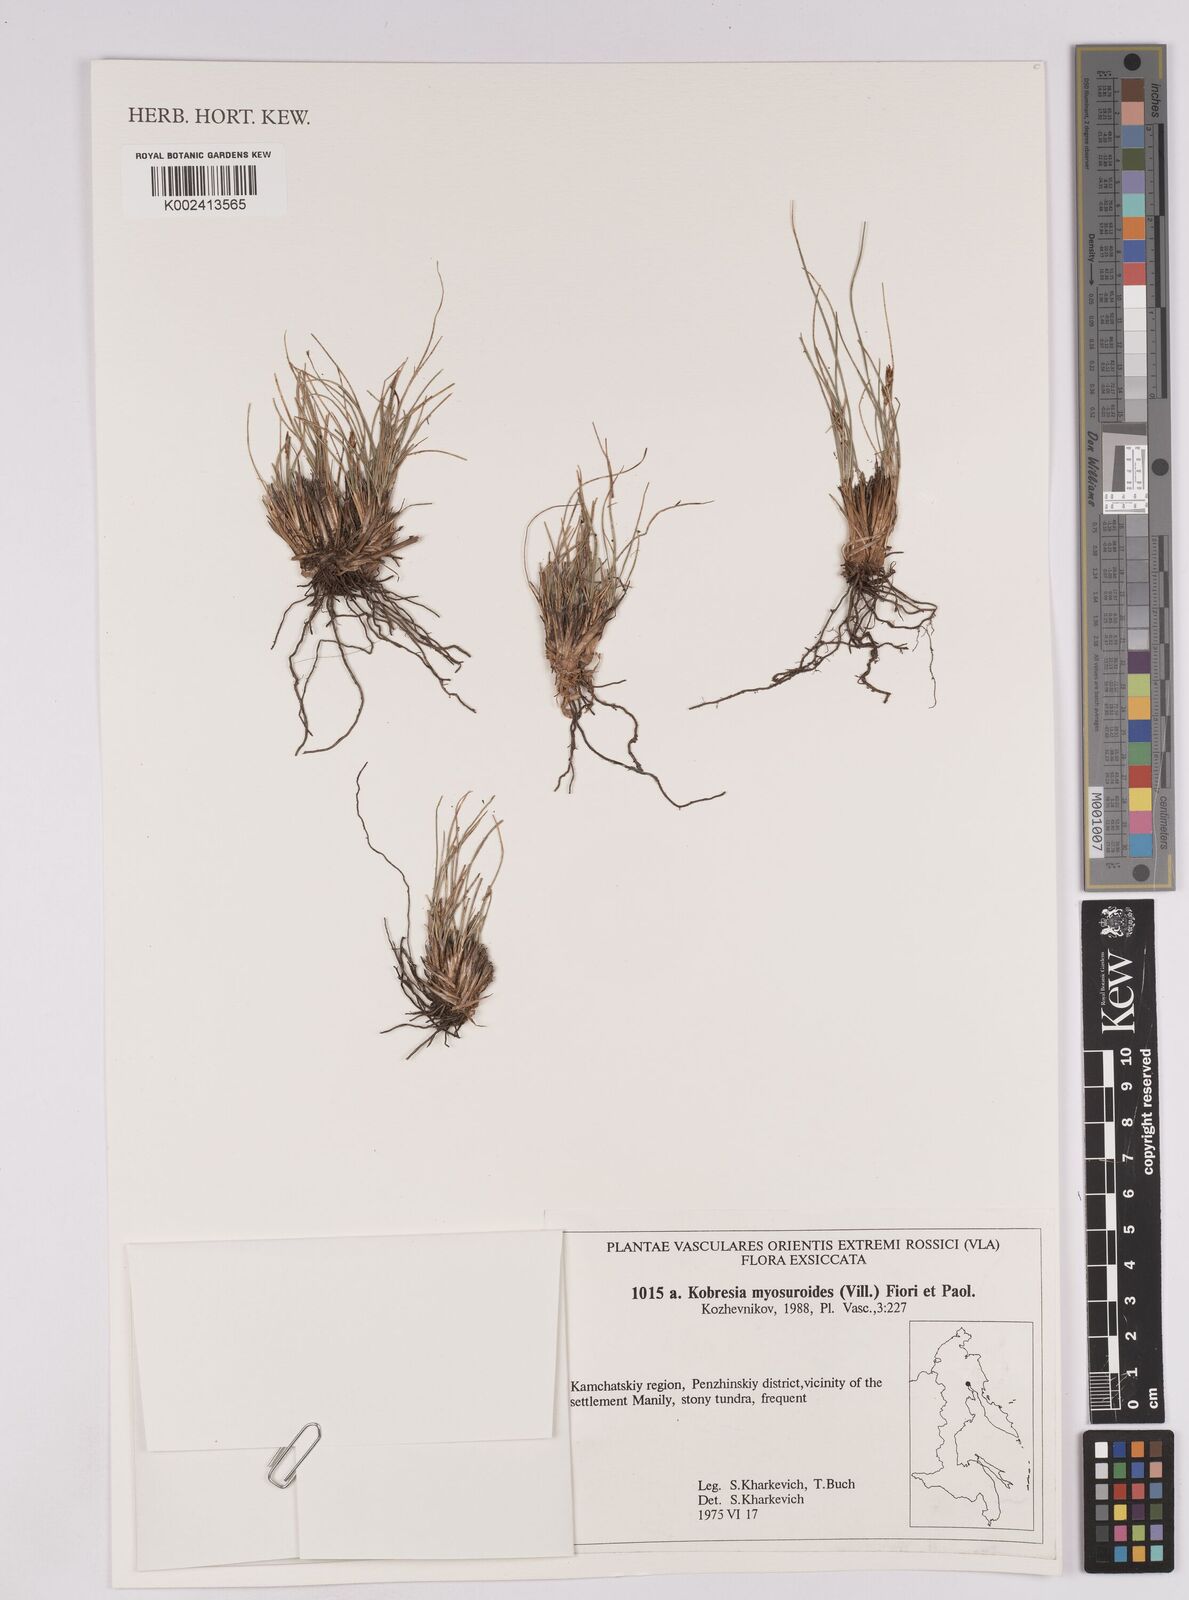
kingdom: Plantae
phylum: Tracheophyta
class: Liliopsida
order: Poales
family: Cyperaceae
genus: Carex
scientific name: Carex myosuroides
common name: Bellard's bog sedge
